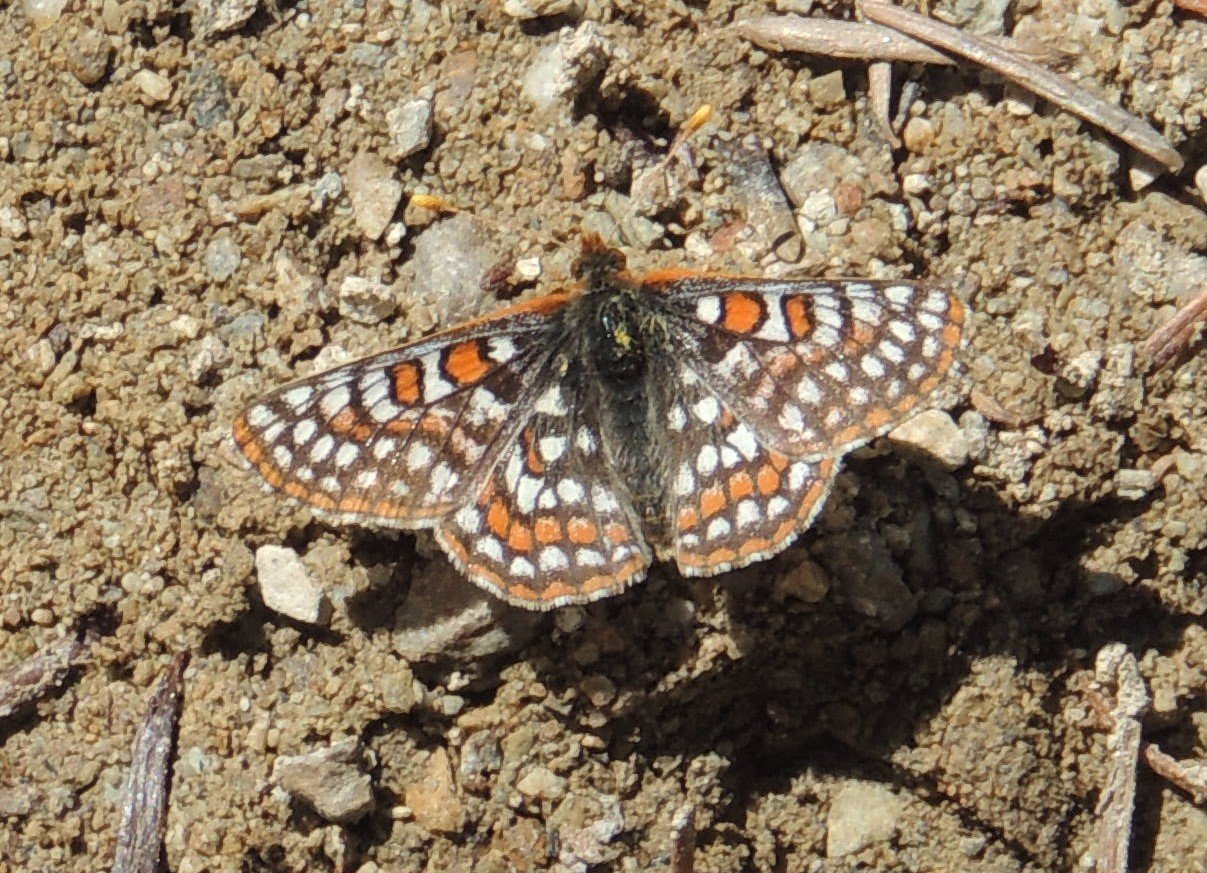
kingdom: Animalia
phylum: Arthropoda
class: Insecta
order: Lepidoptera
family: Nymphalidae
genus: Occidryas
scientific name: Occidryas editha
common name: Edith's Checkerspot
